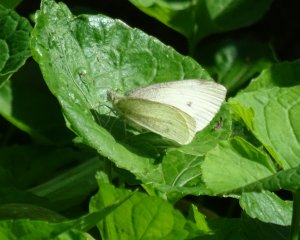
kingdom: Animalia
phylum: Arthropoda
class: Insecta
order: Lepidoptera
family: Pieridae
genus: Pieris
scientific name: Pieris rapae
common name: Cabbage White
